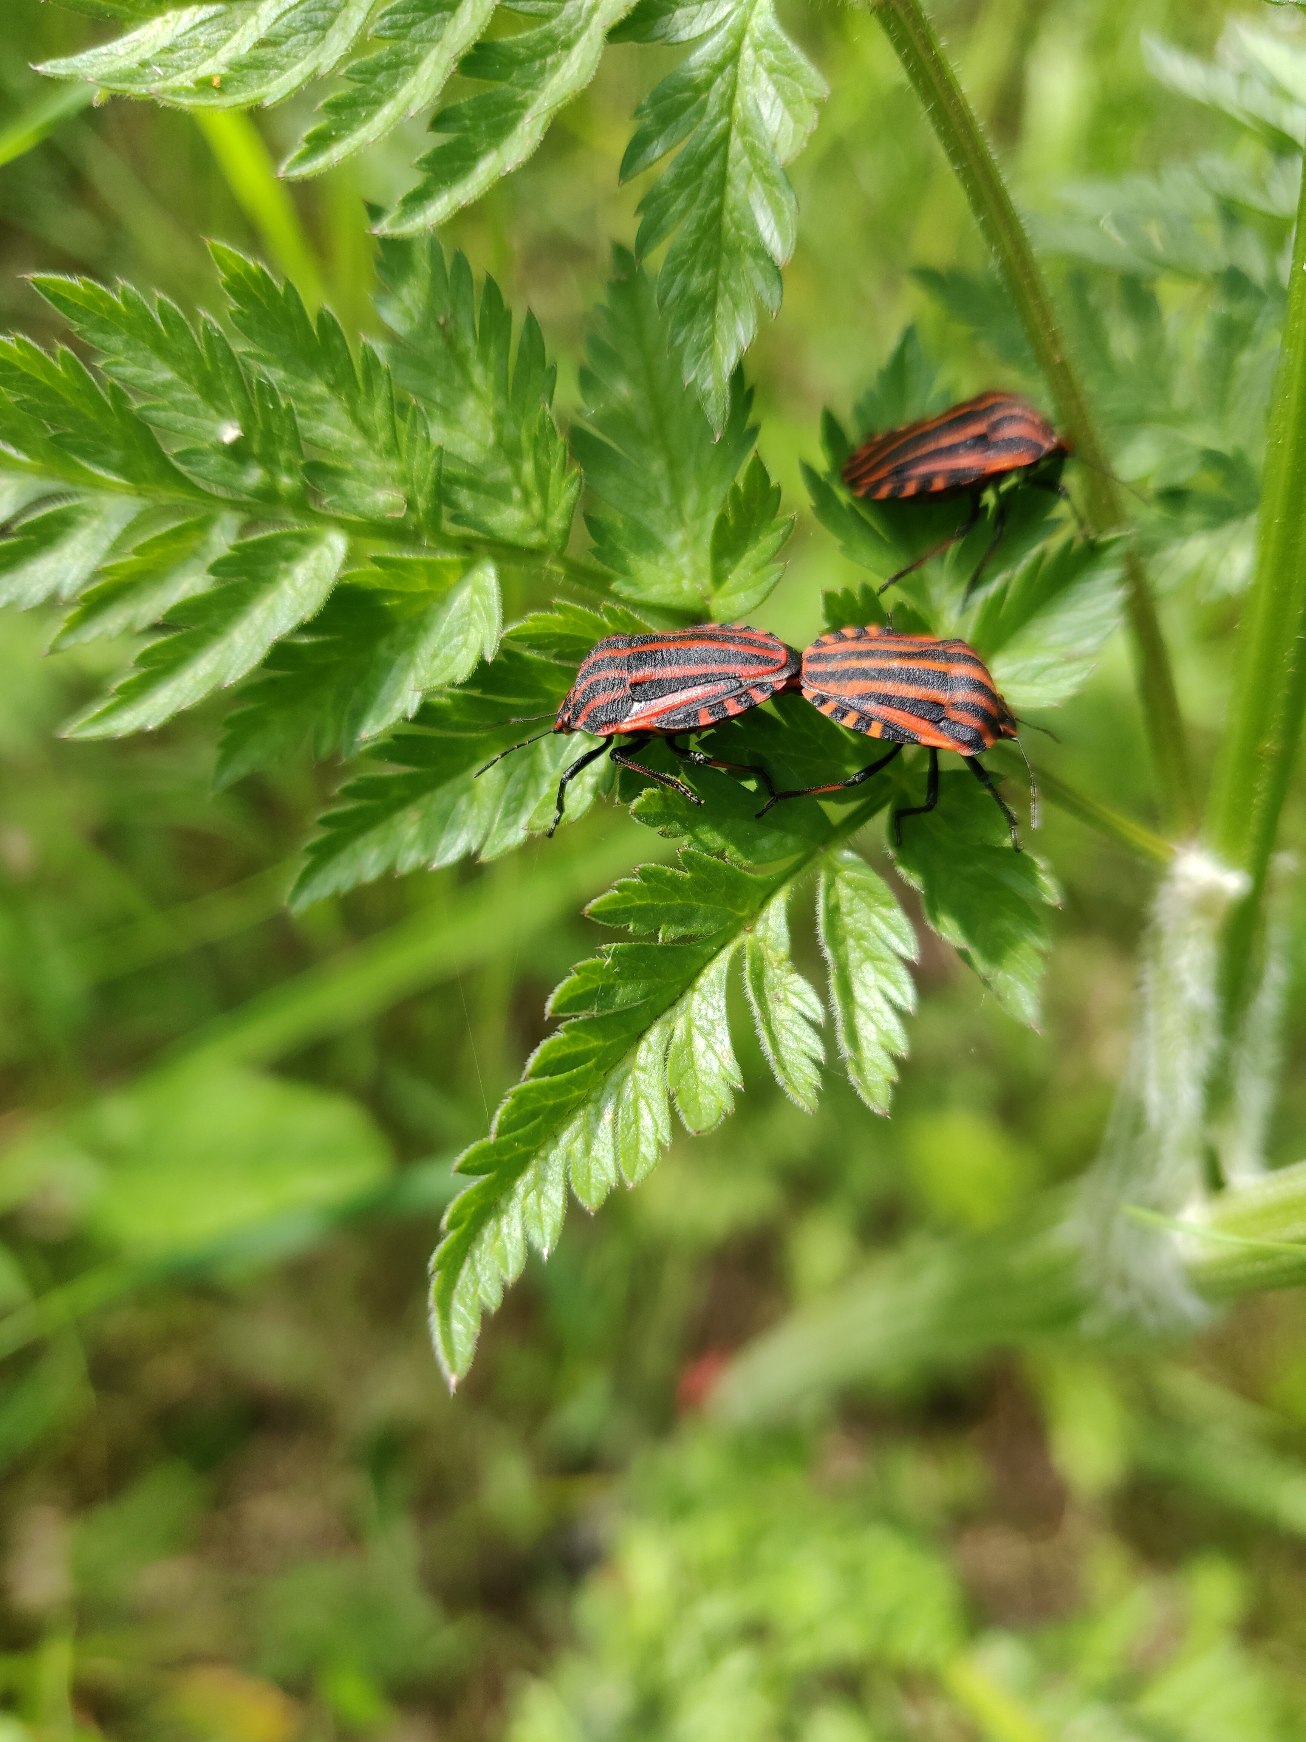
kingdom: Animalia
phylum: Arthropoda
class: Insecta
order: Hemiptera
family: Pentatomidae
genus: Graphosoma
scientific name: Graphosoma italicum
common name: Stribetæge
